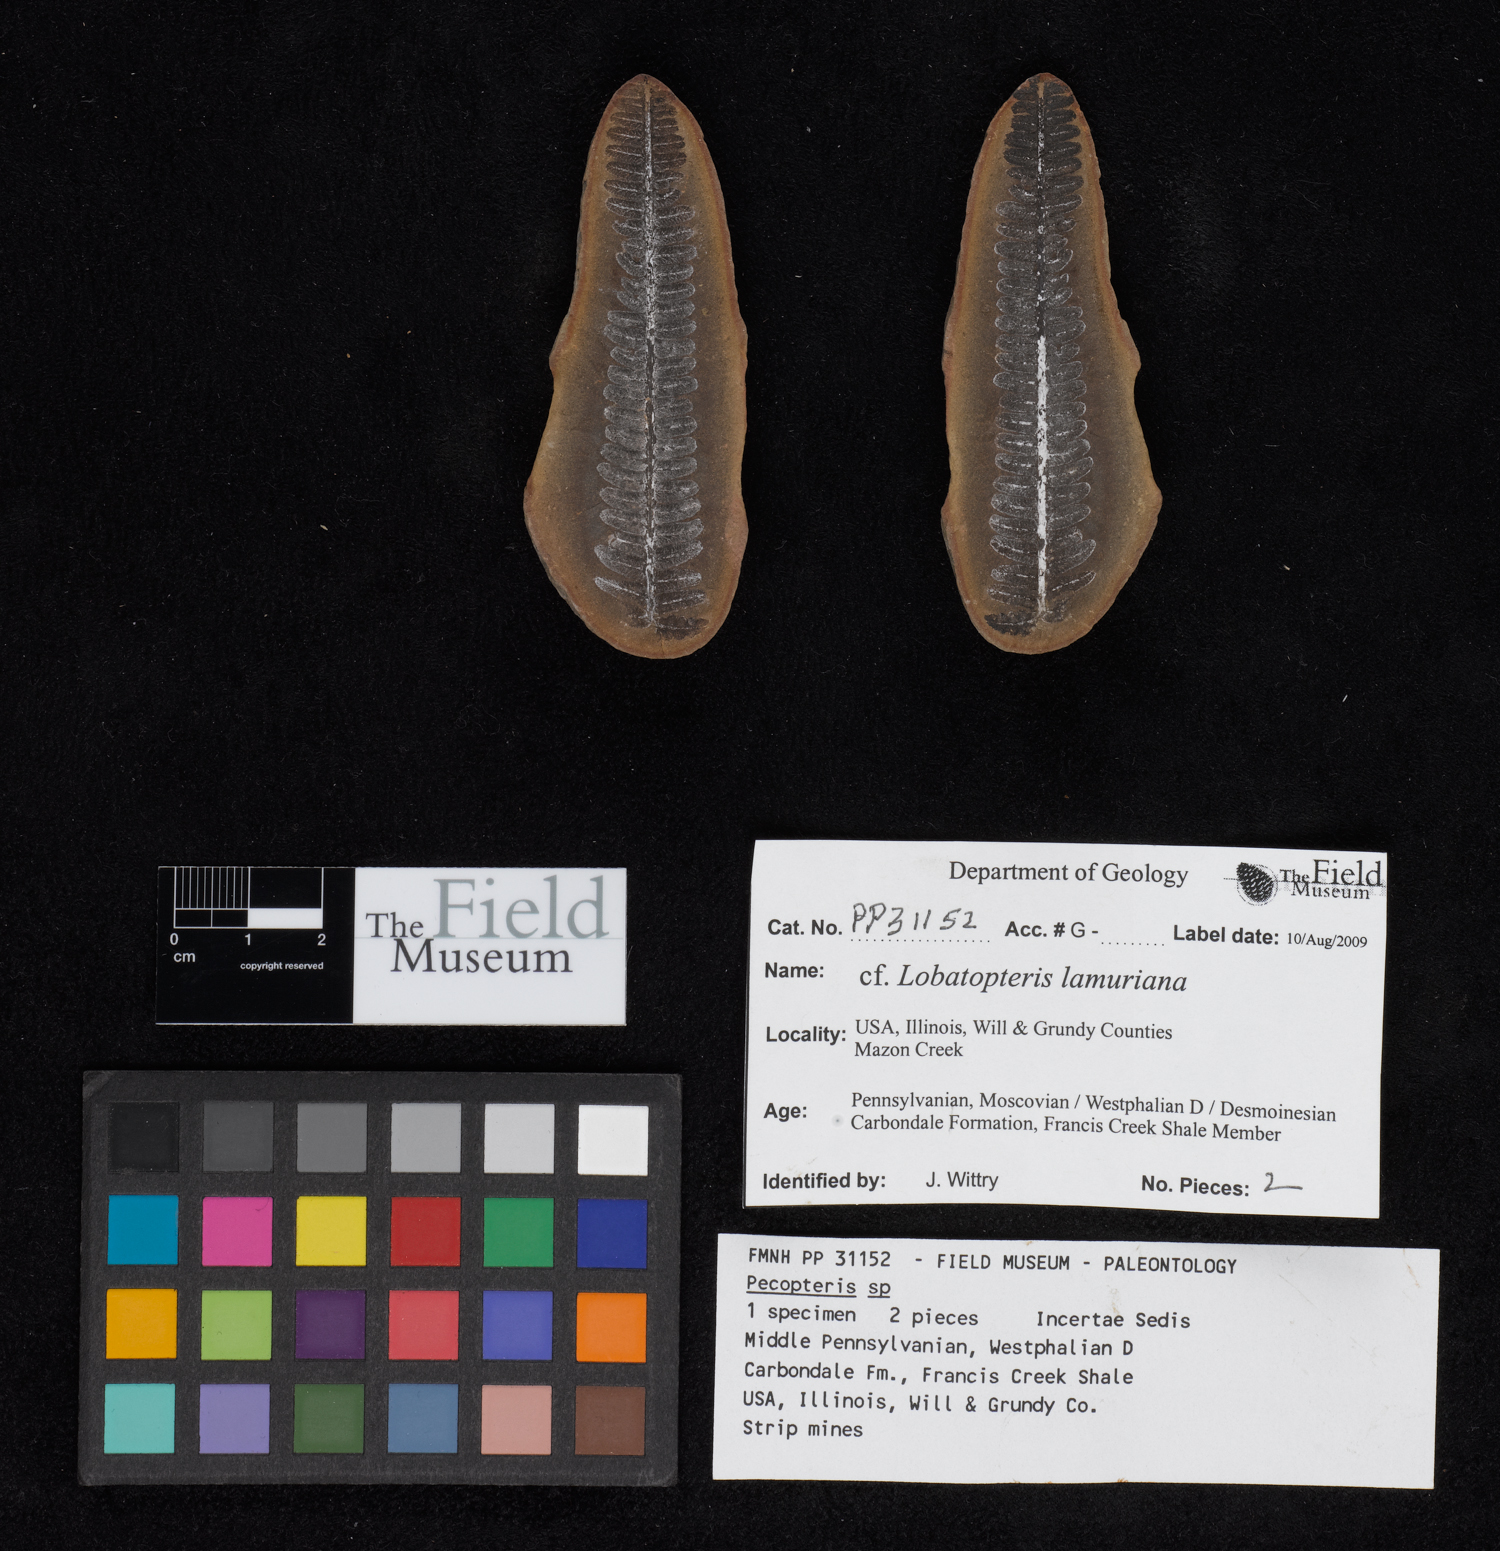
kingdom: Plantae
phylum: Tracheophyta
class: Polypodiopsida
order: Marattiales
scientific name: Marattiales
